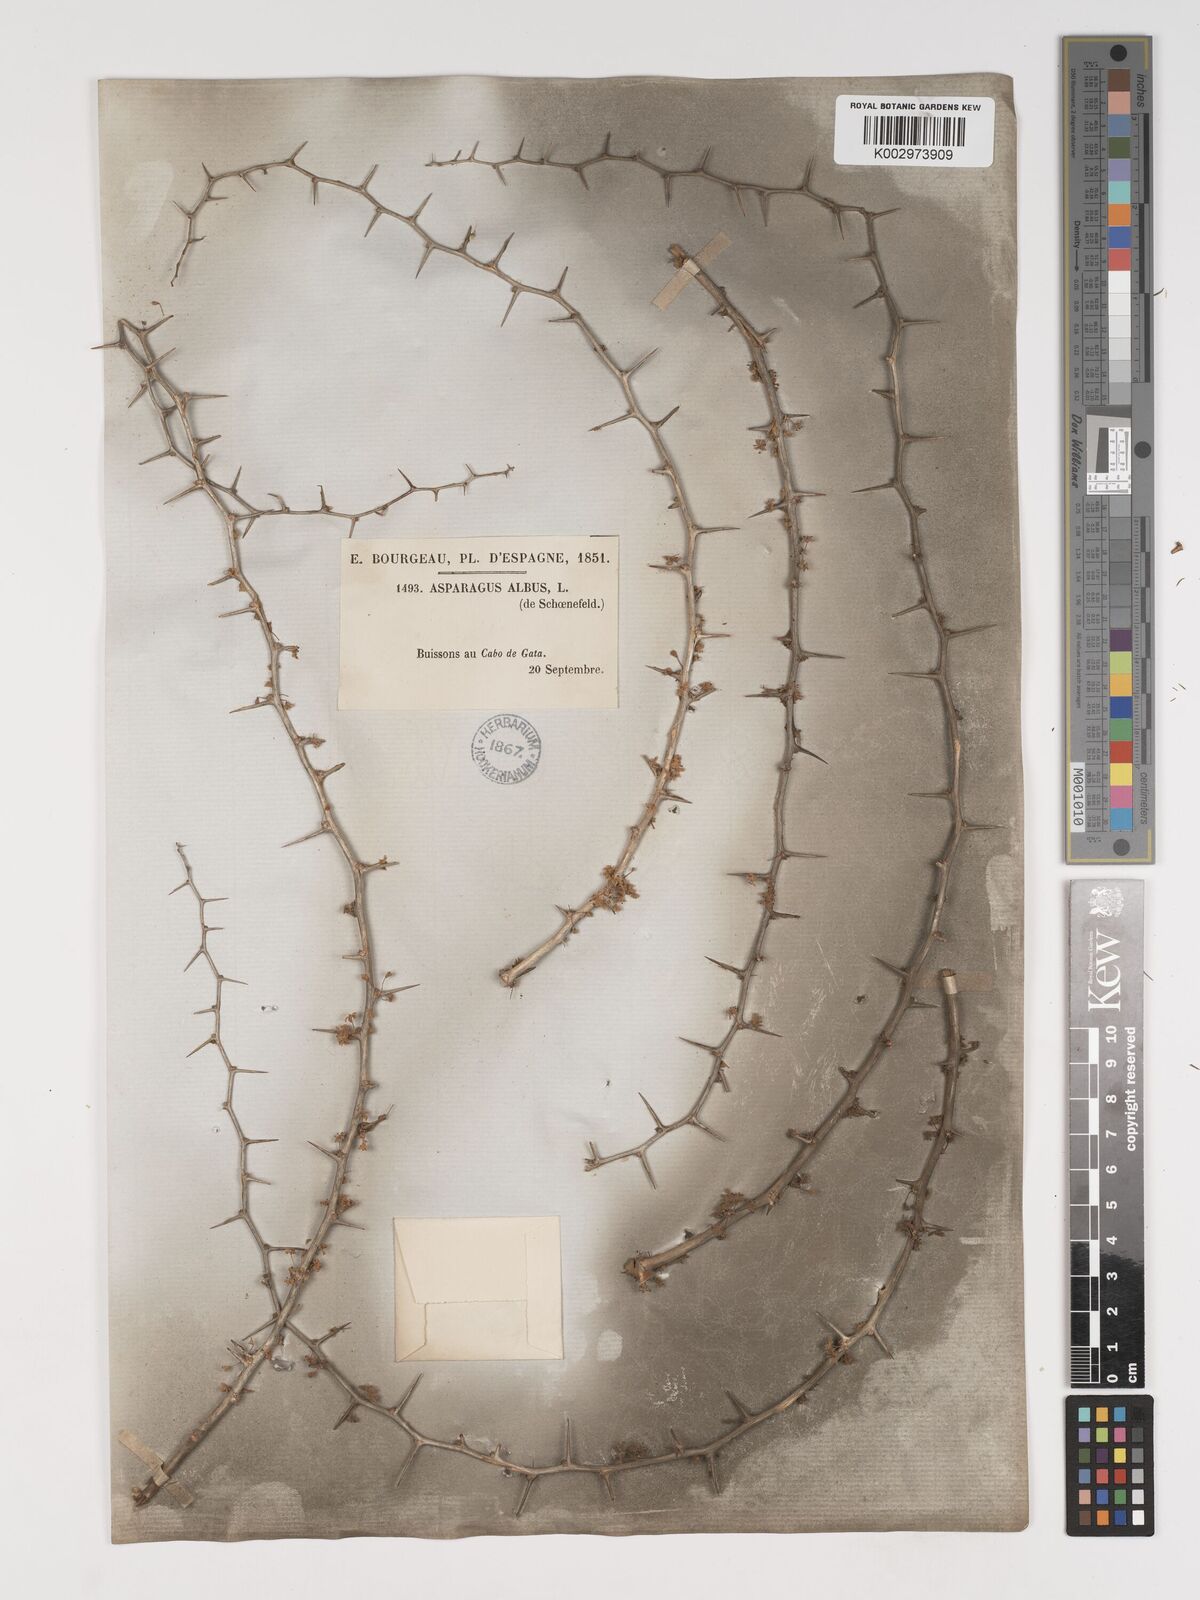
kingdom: Plantae
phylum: Tracheophyta
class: Liliopsida
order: Asparagales
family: Asparagaceae
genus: Asparagus
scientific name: Asparagus albus
